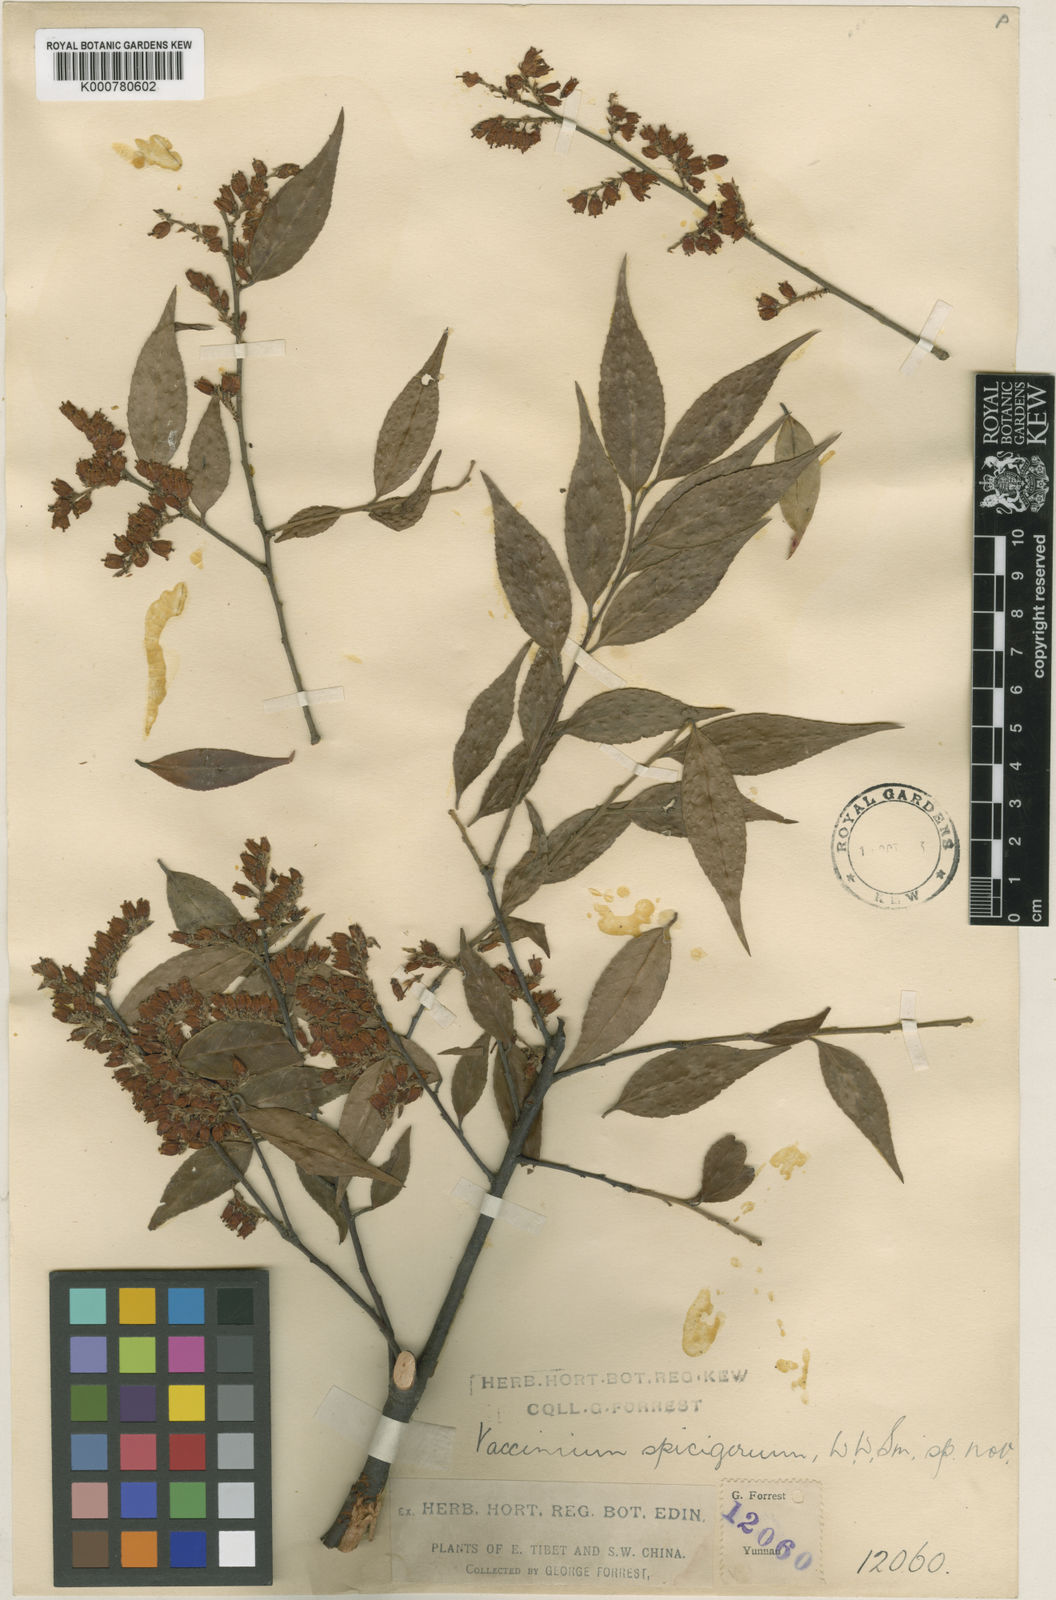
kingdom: Plantae
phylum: Tracheophyta
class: Magnoliopsida
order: Ericales
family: Ericaceae
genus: Vaccinium
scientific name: Vaccinium pubicalyx
